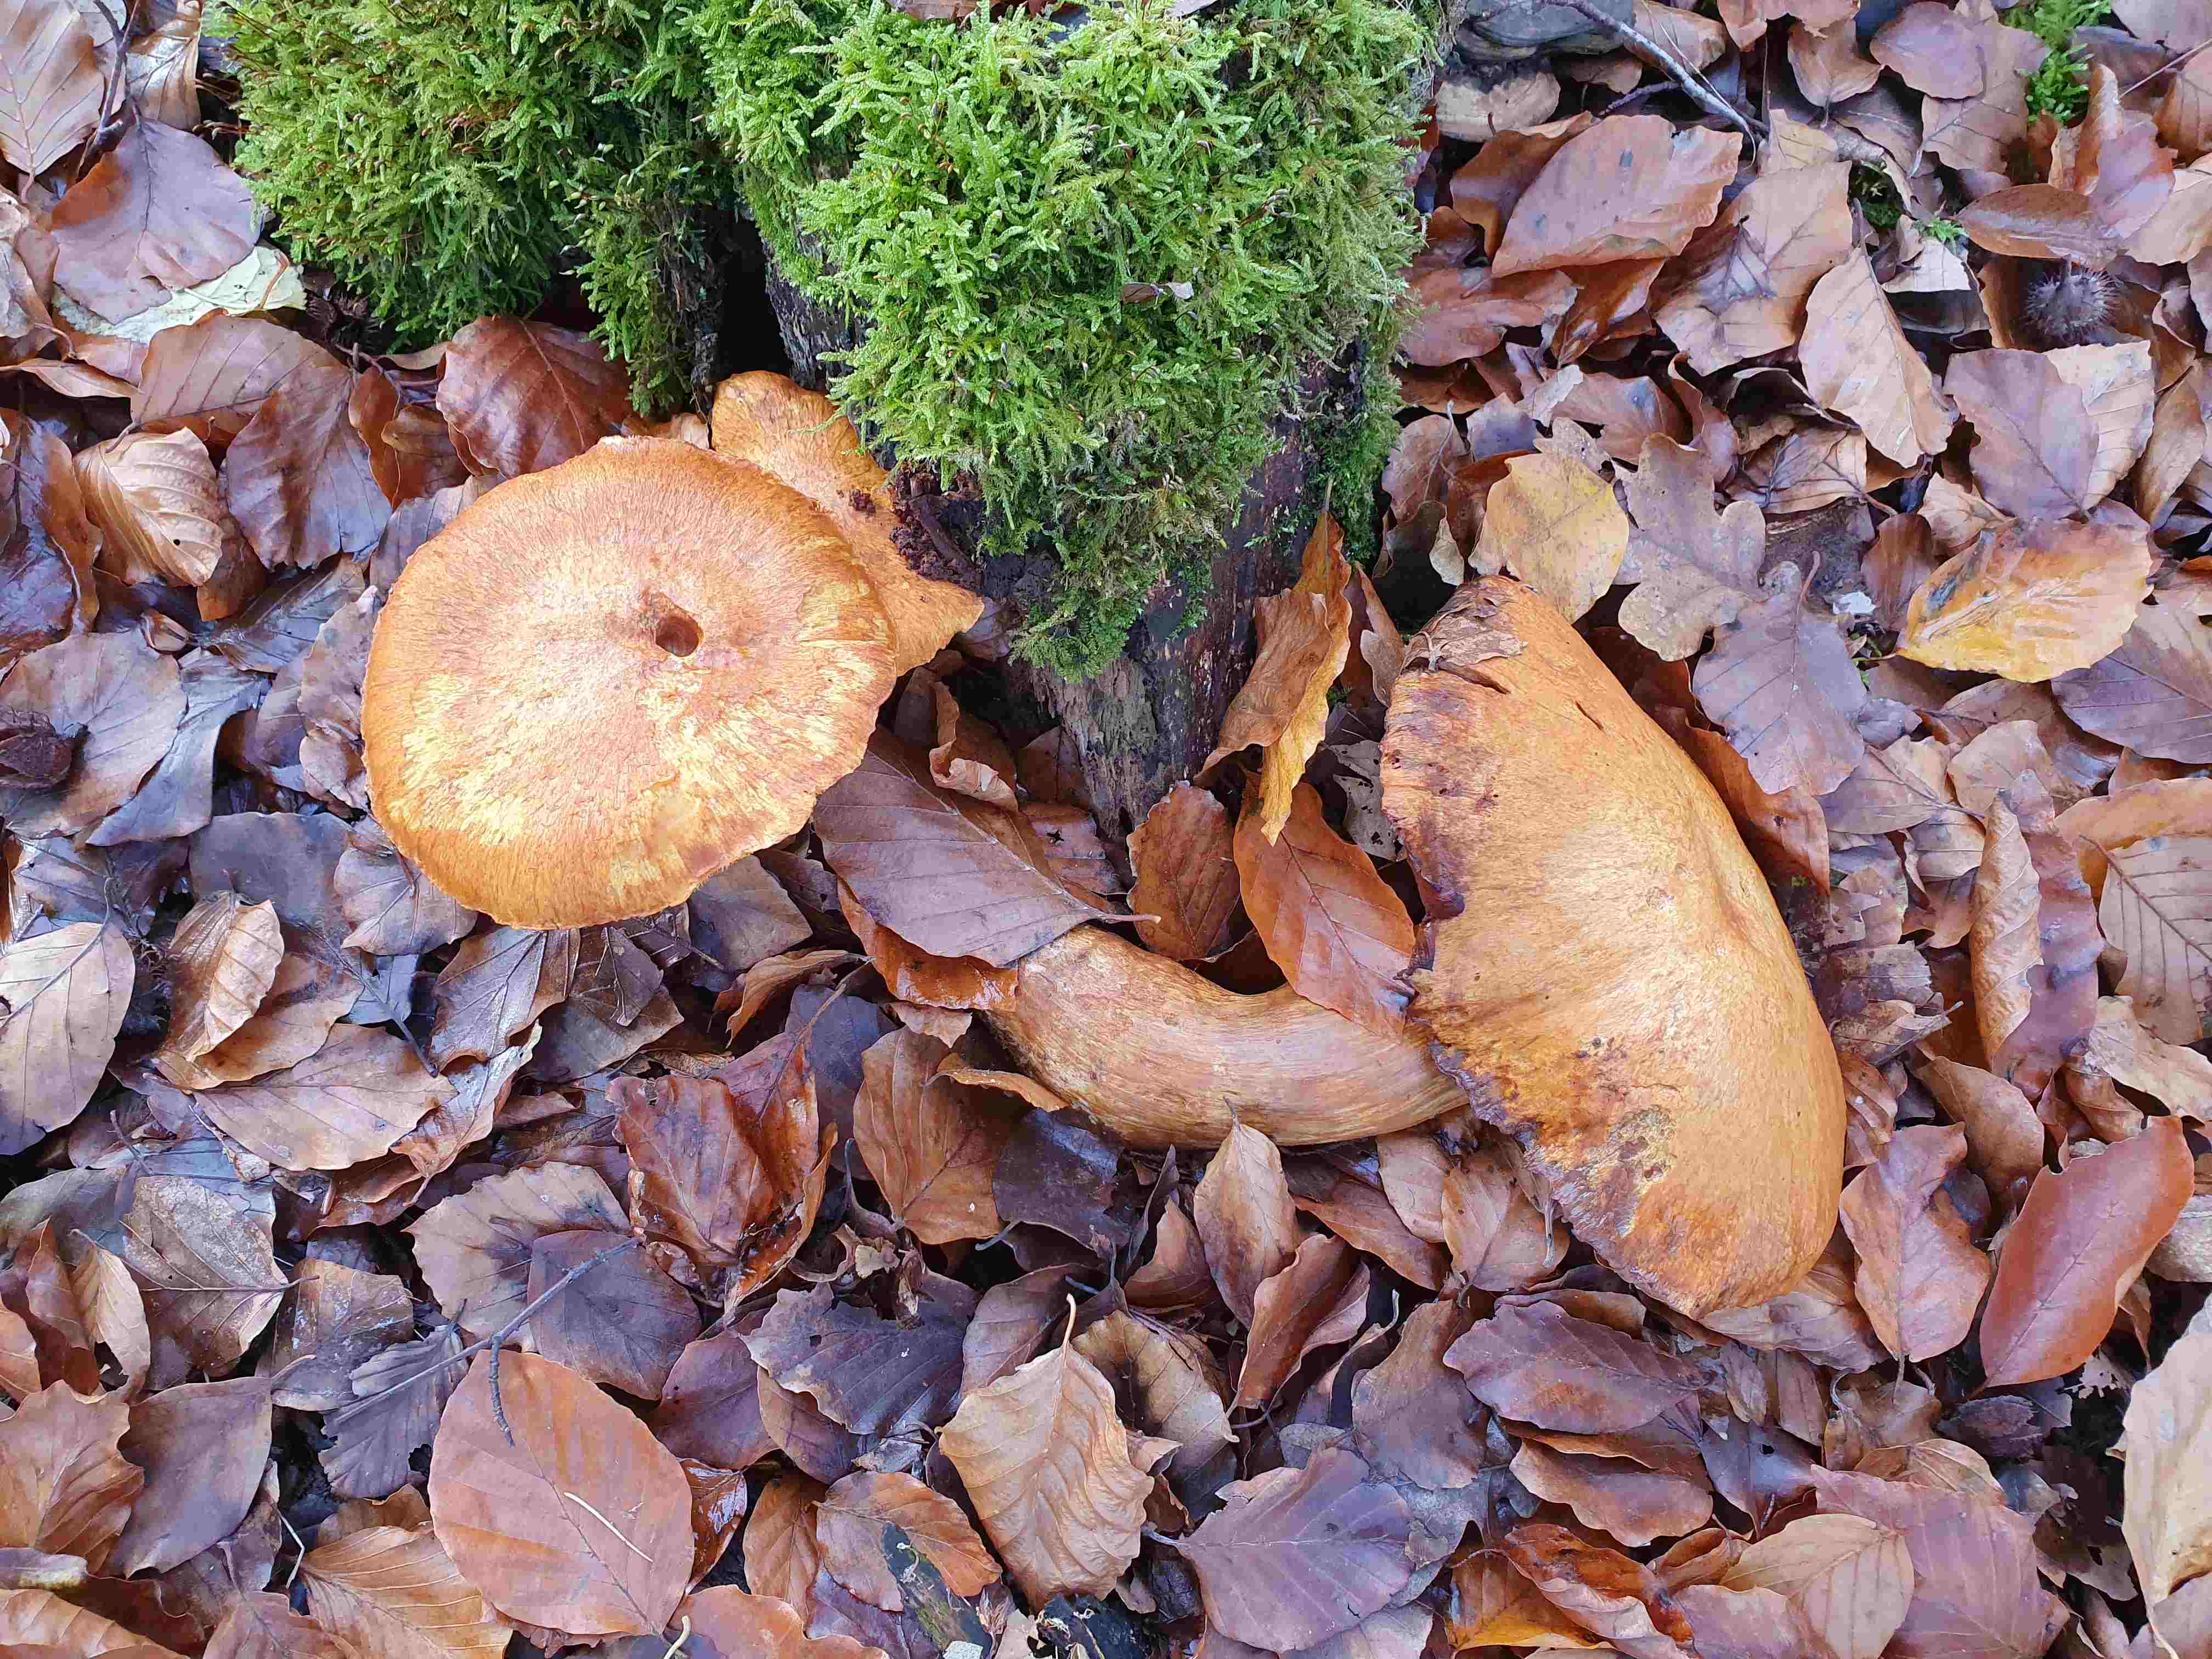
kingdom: Fungi
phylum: Basidiomycota
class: Agaricomycetes
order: Agaricales
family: Hymenogastraceae
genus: Gymnopilus
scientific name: Gymnopilus spectabilis
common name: fibret flammehat
